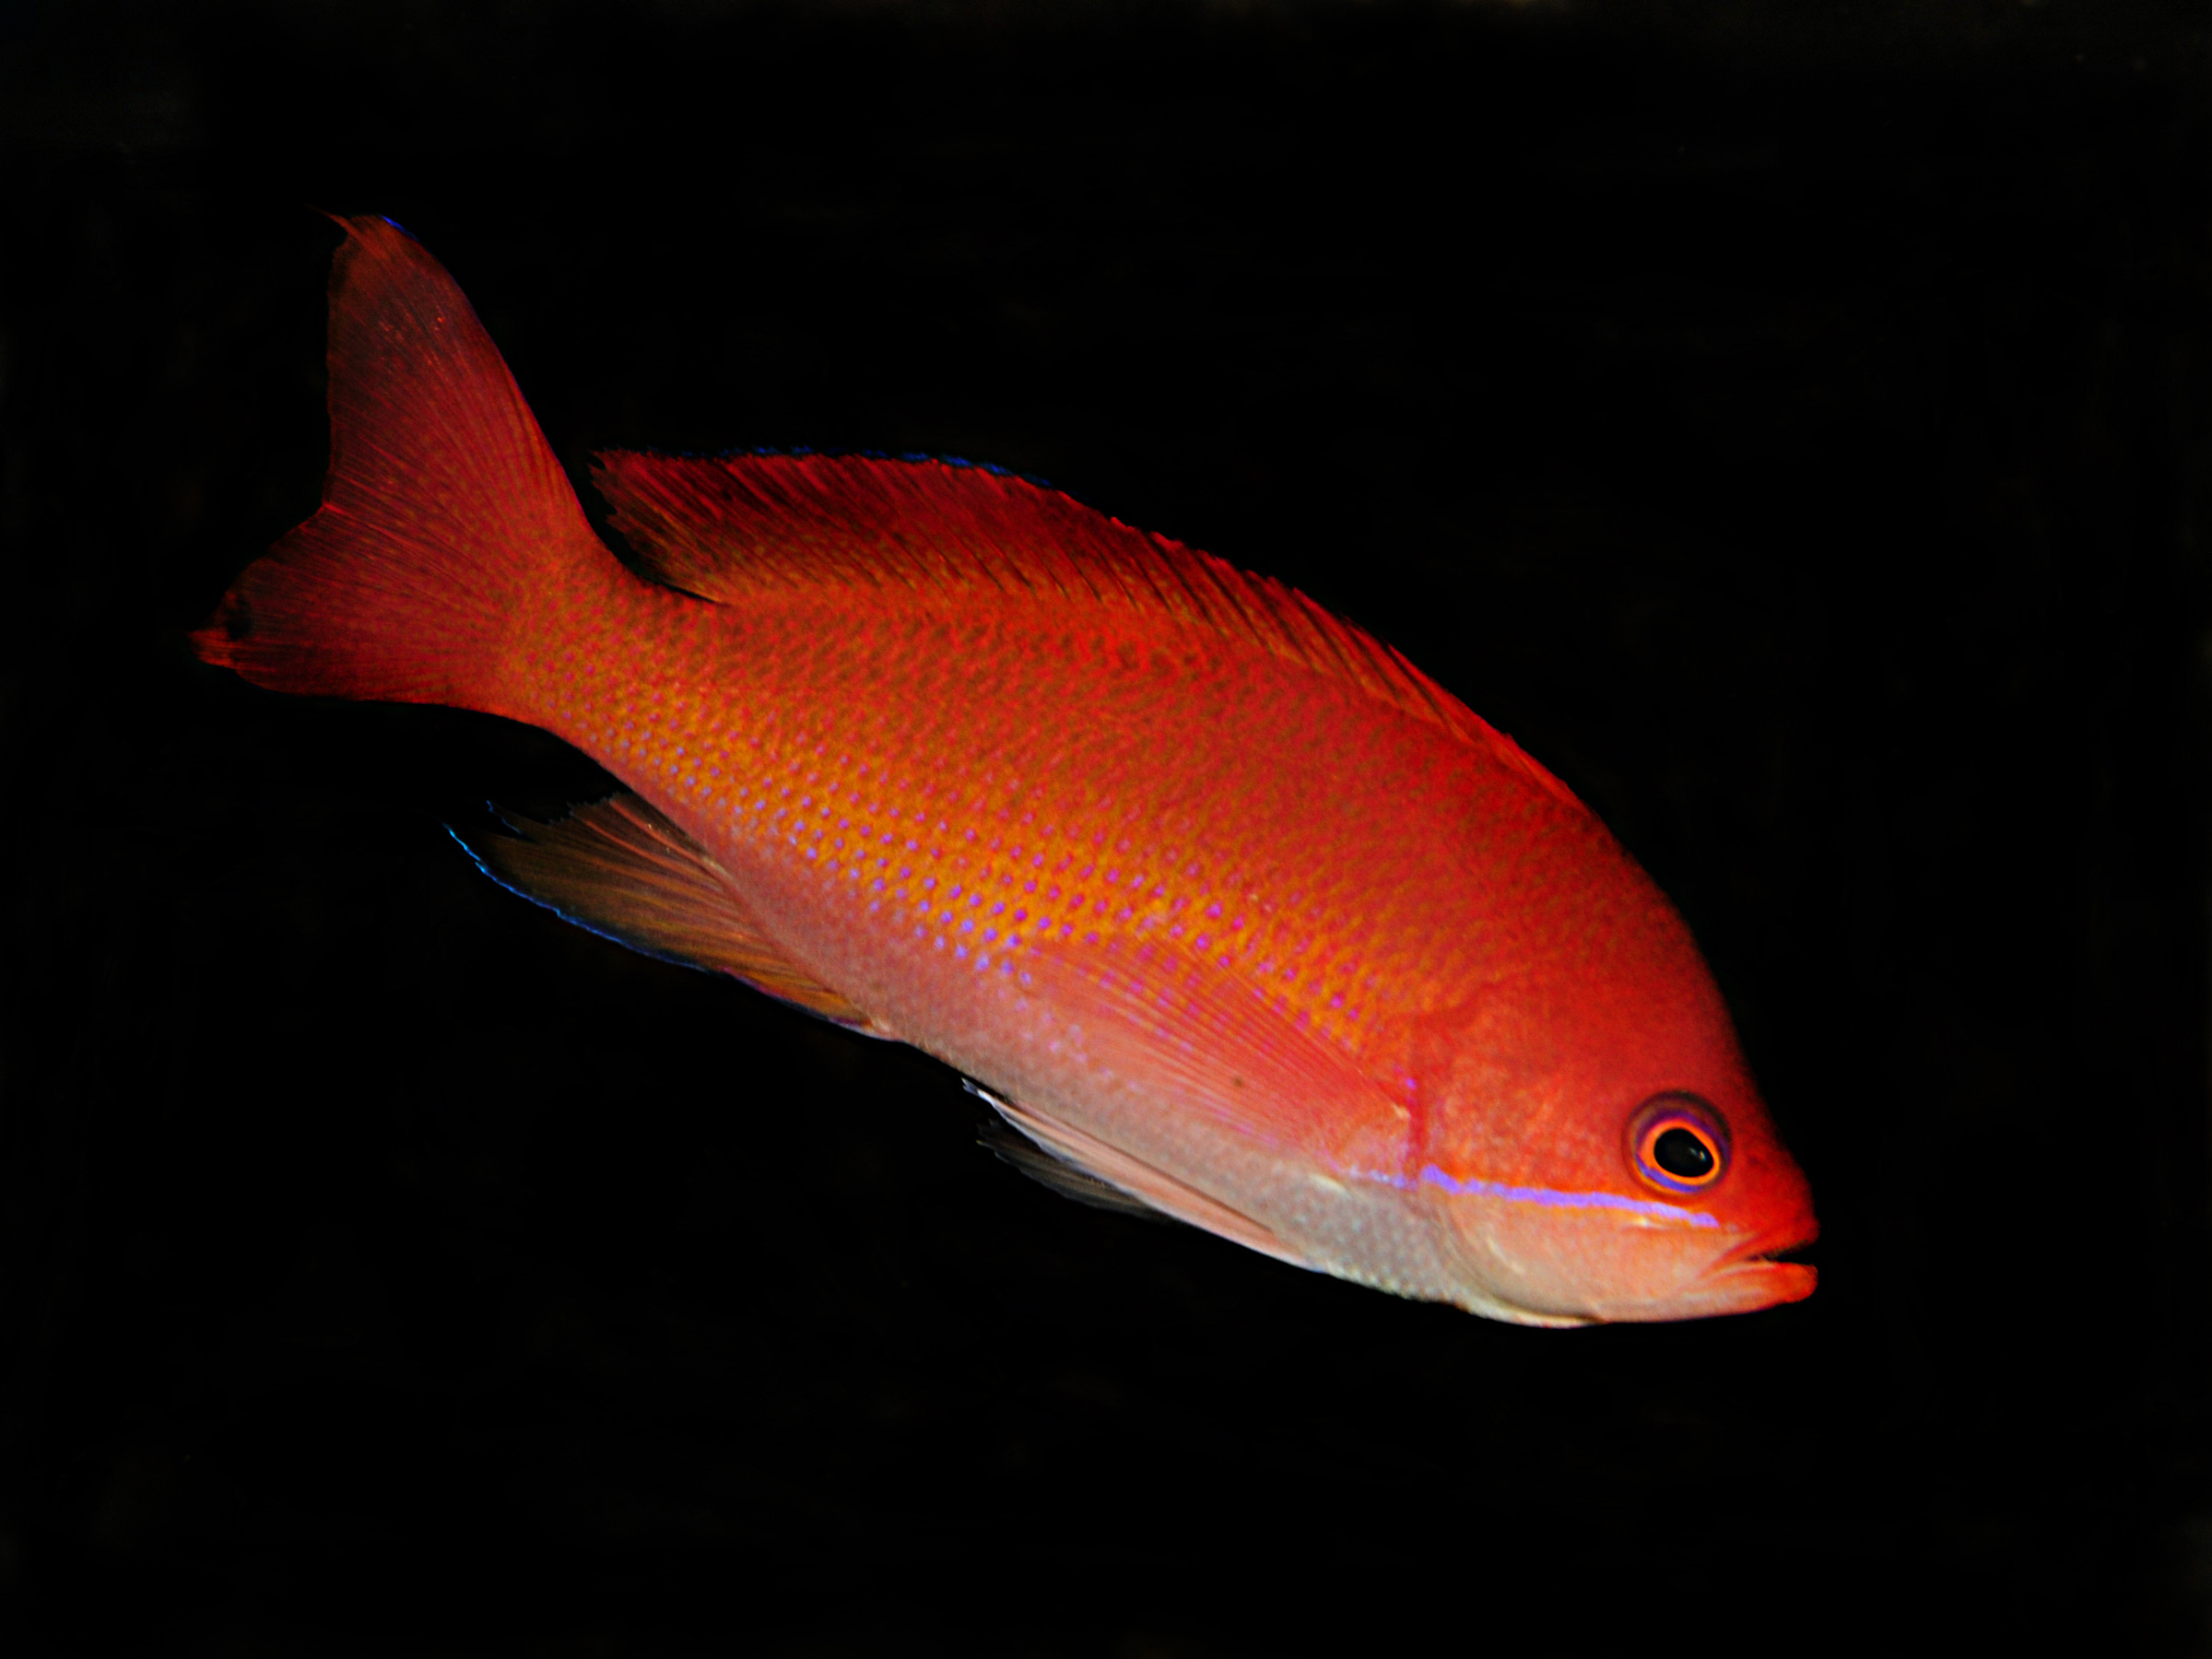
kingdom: Animalia
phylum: Chordata
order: Perciformes
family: Serranidae
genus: Pseudanthias
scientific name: Pseudanthias connelli
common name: Harlequin goldie
